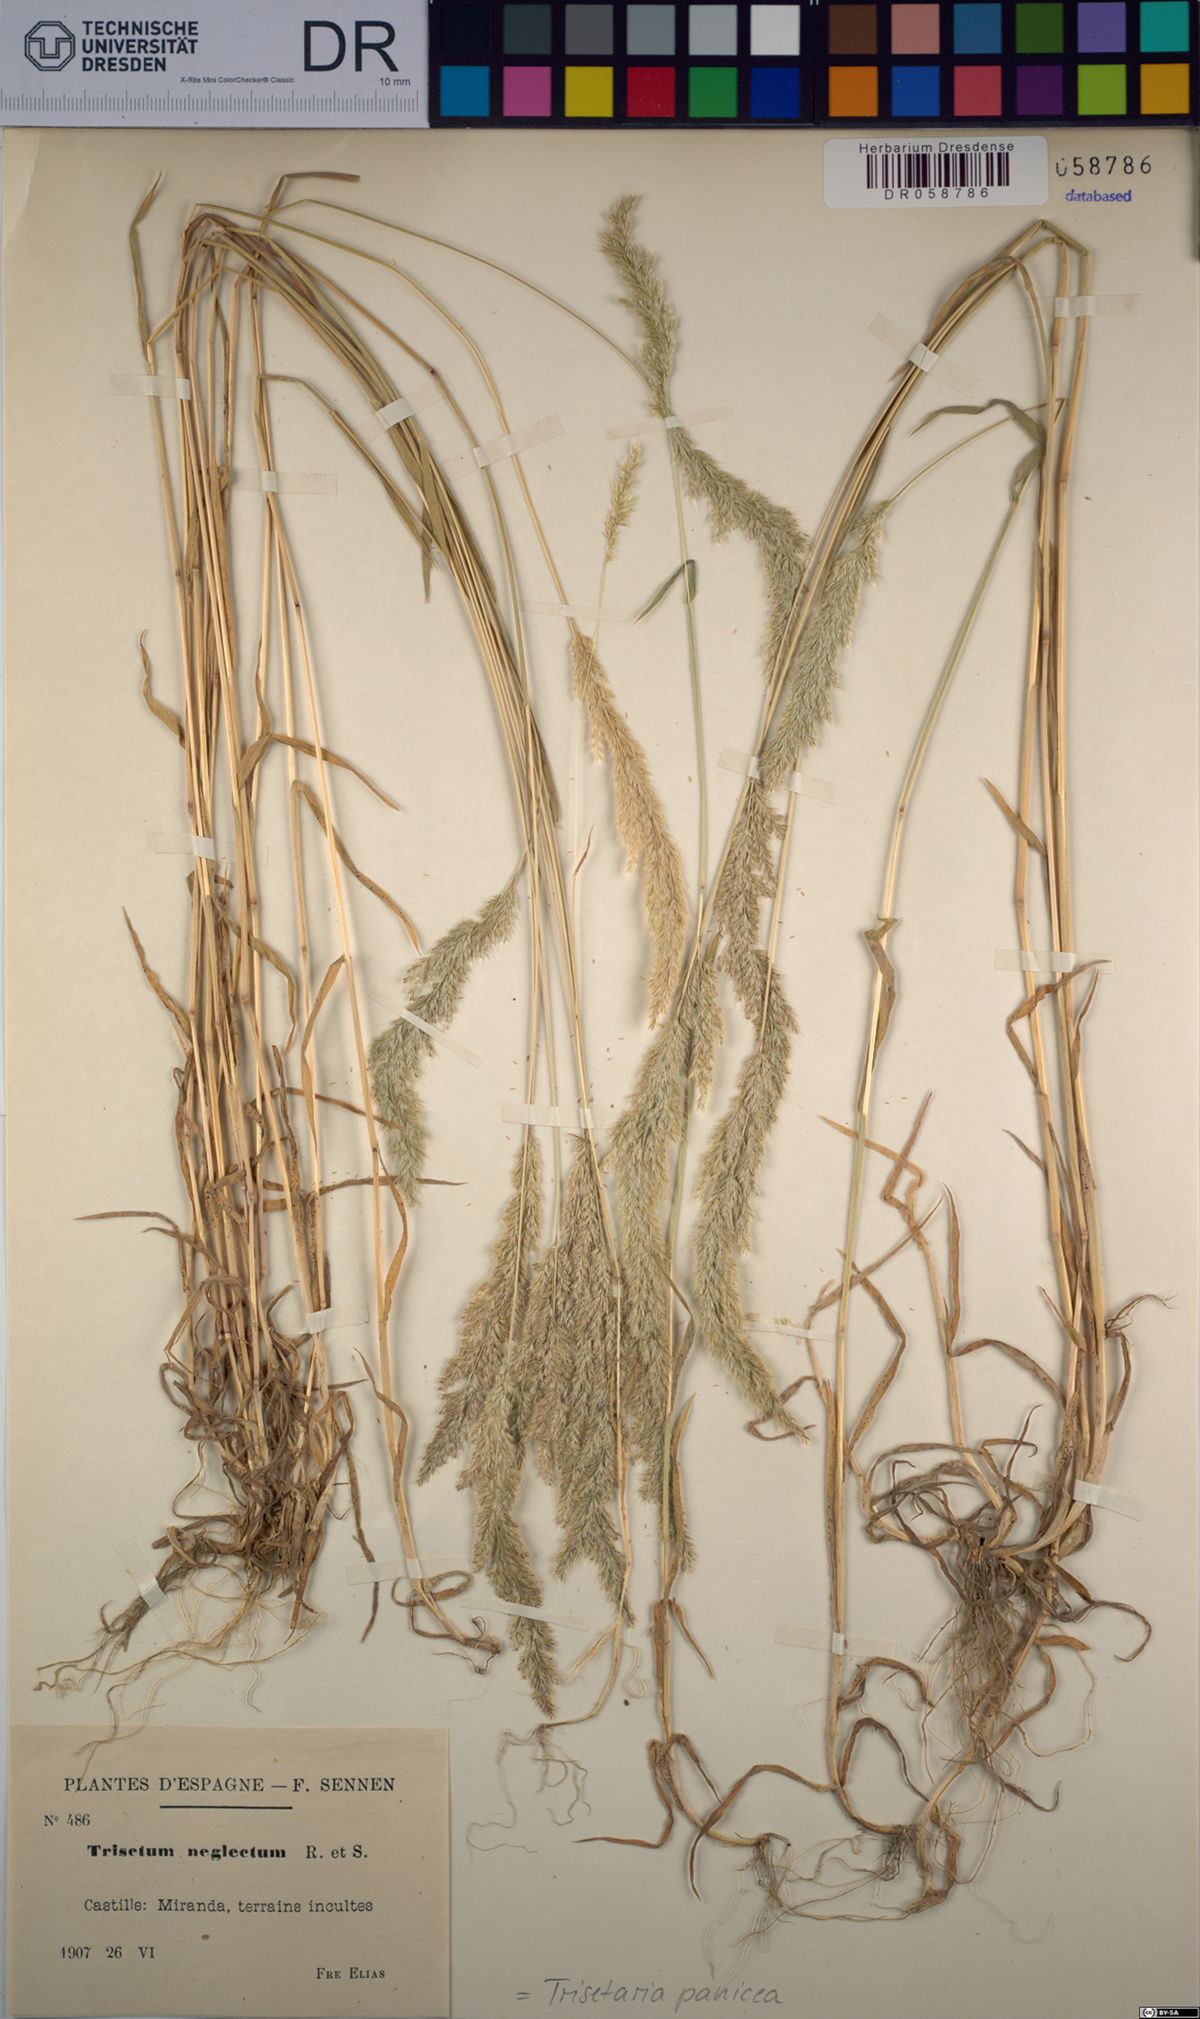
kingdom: Plantae
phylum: Tracheophyta
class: Liliopsida
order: Poales
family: Poaceae
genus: Trisetaria
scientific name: Trisetaria panicea
